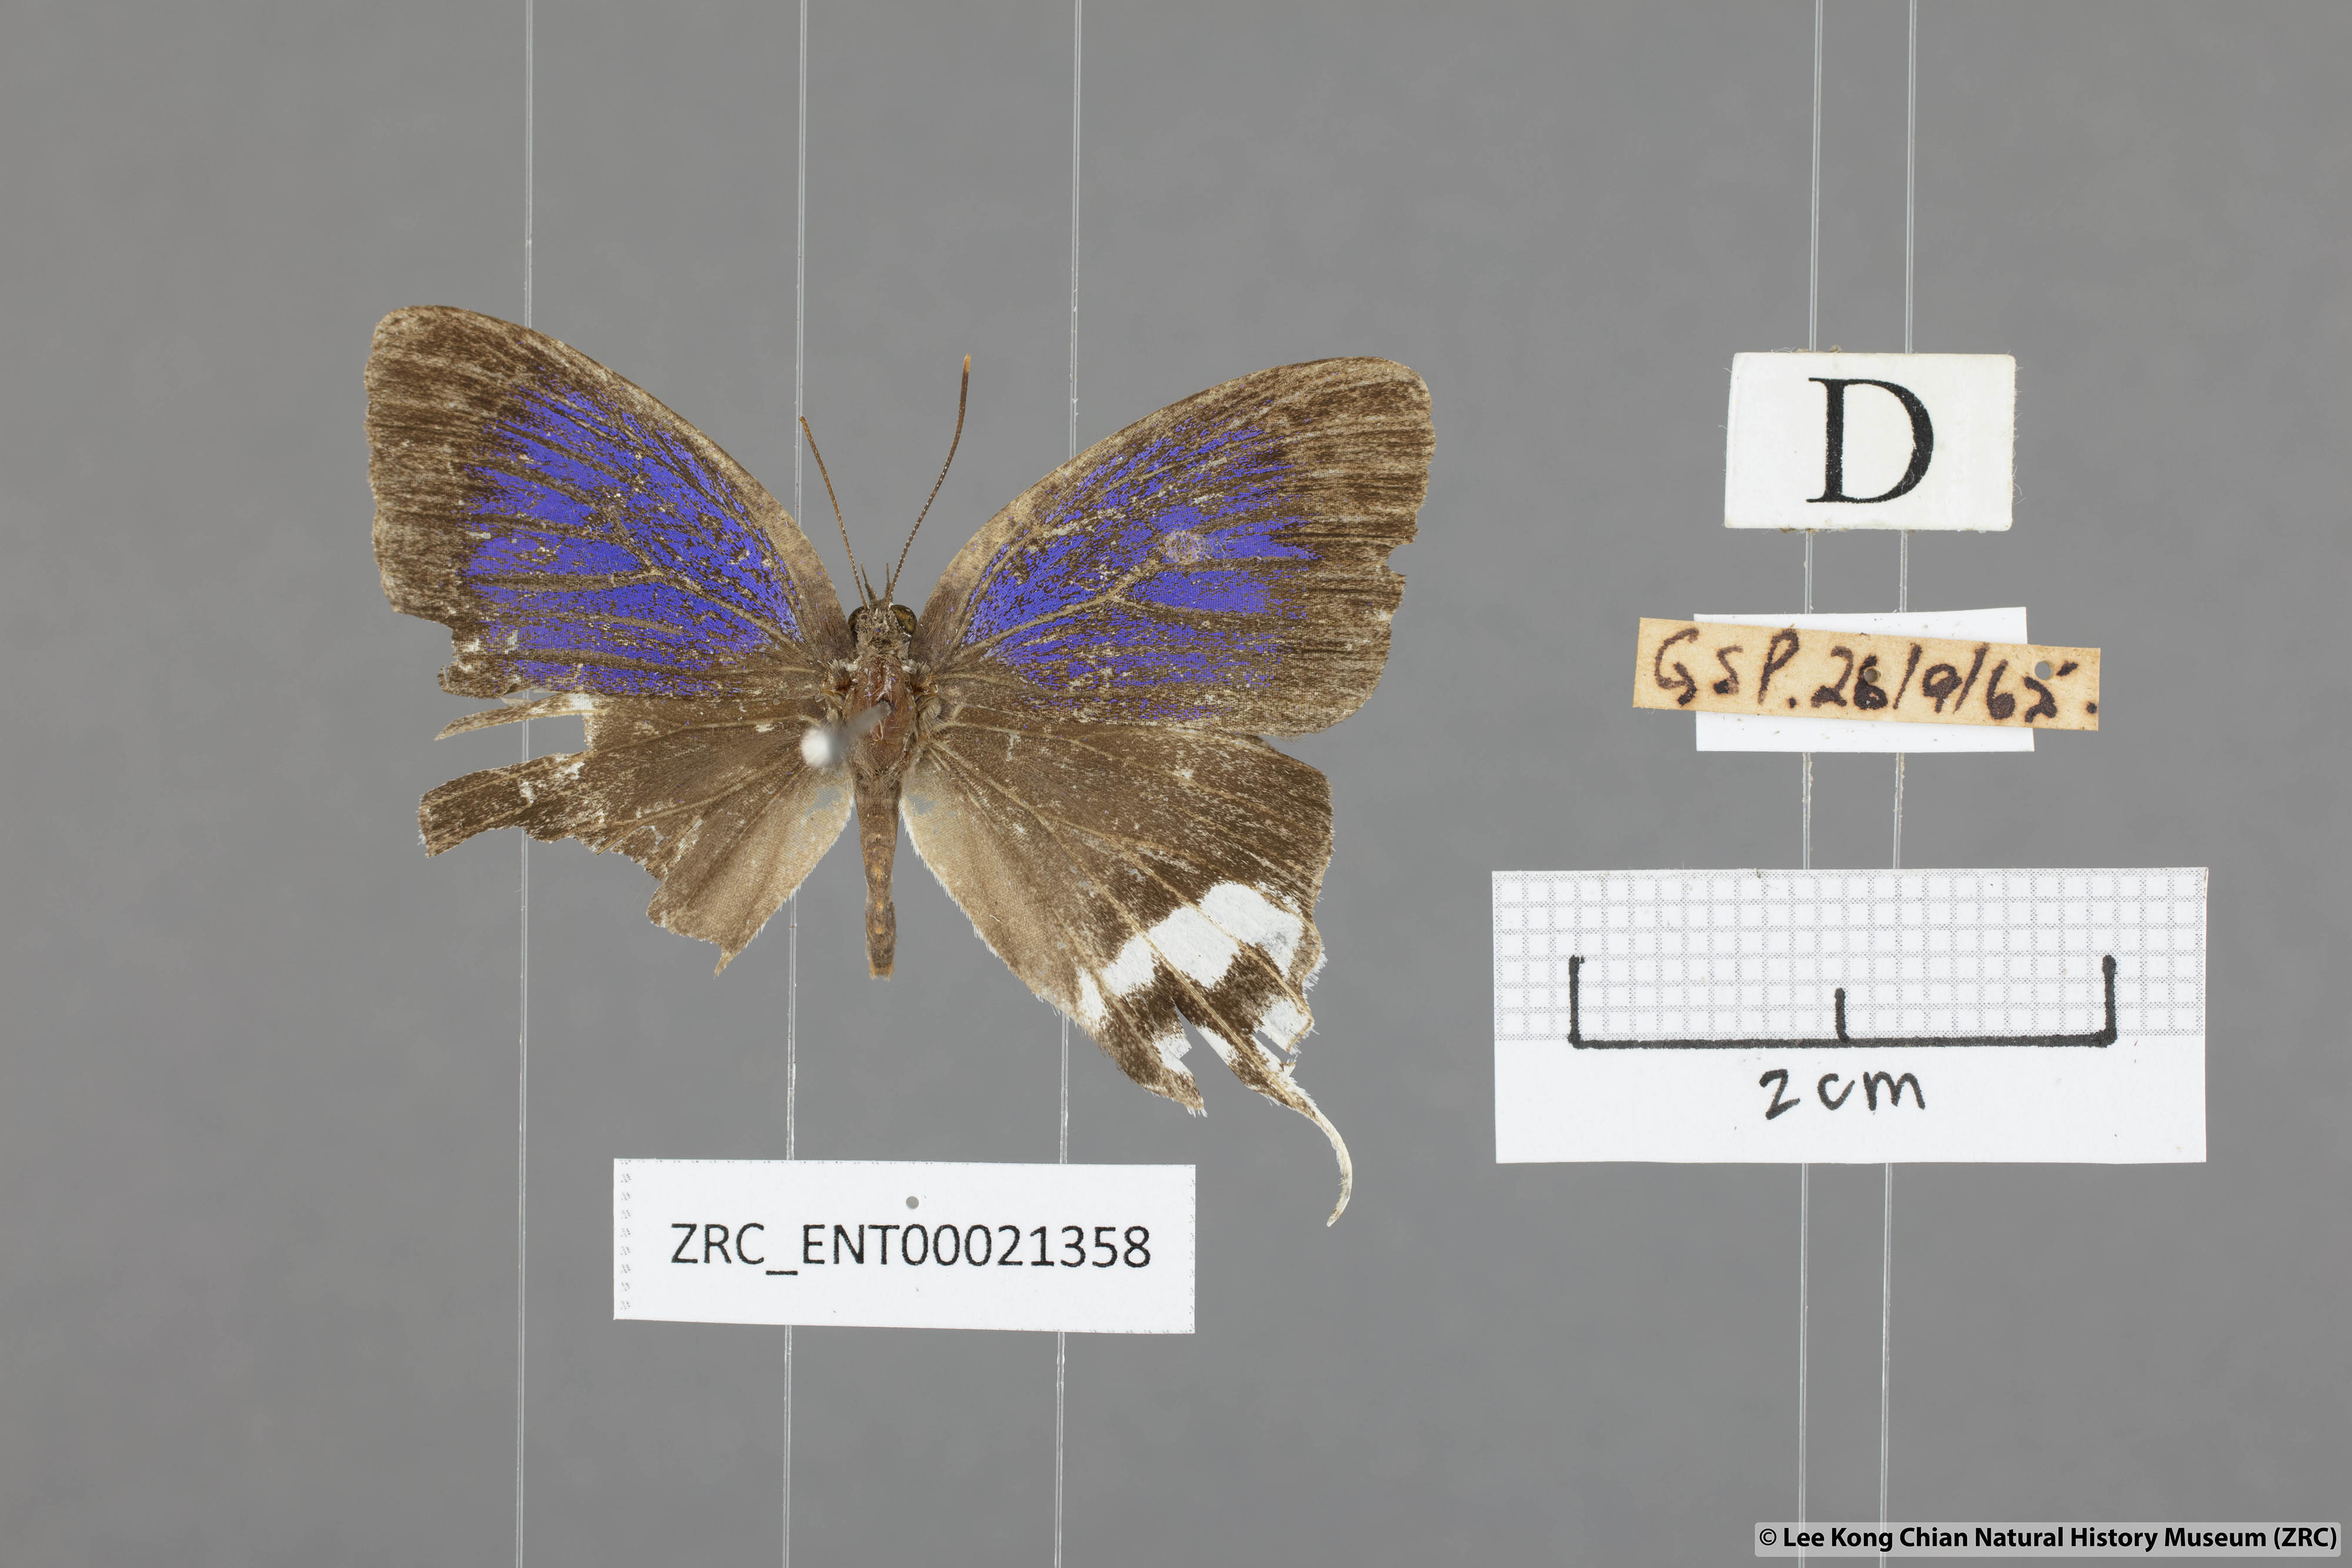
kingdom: Animalia
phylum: Arthropoda
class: Insecta
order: Lepidoptera
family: Lycaenidae
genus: Drina
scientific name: Drina
